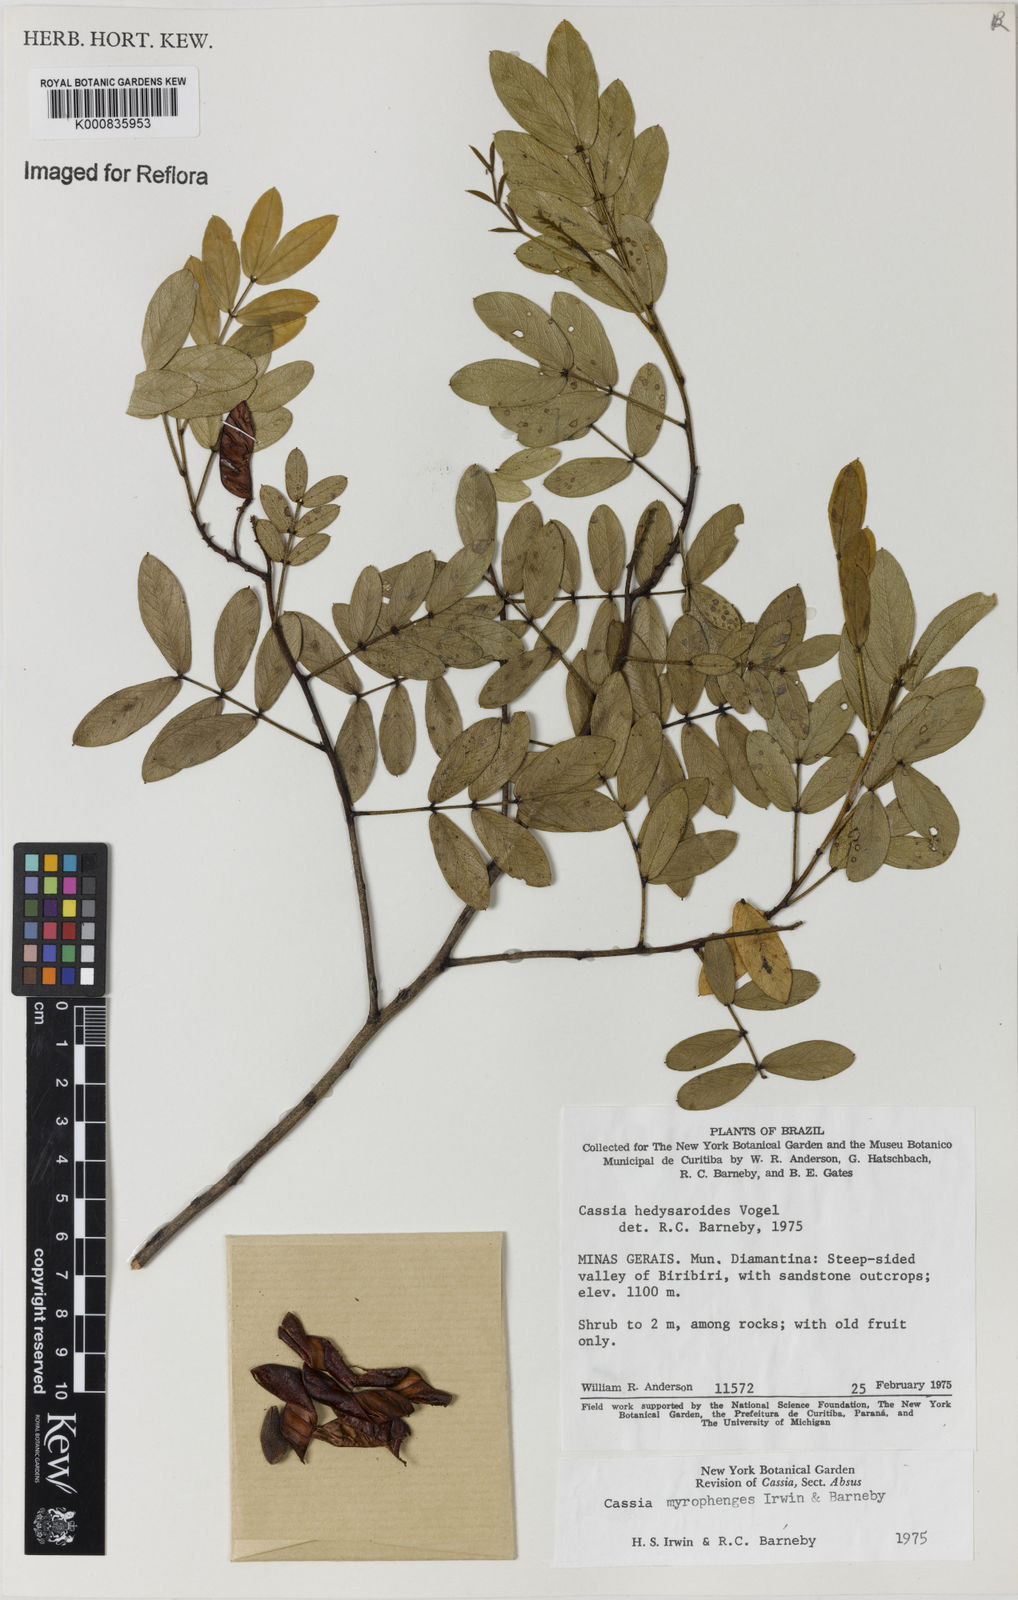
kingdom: Plantae
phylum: Tracheophyta
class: Magnoliopsida
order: Fabales
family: Fabaceae
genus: Chamaecrista
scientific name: Chamaecrista myrophenges
